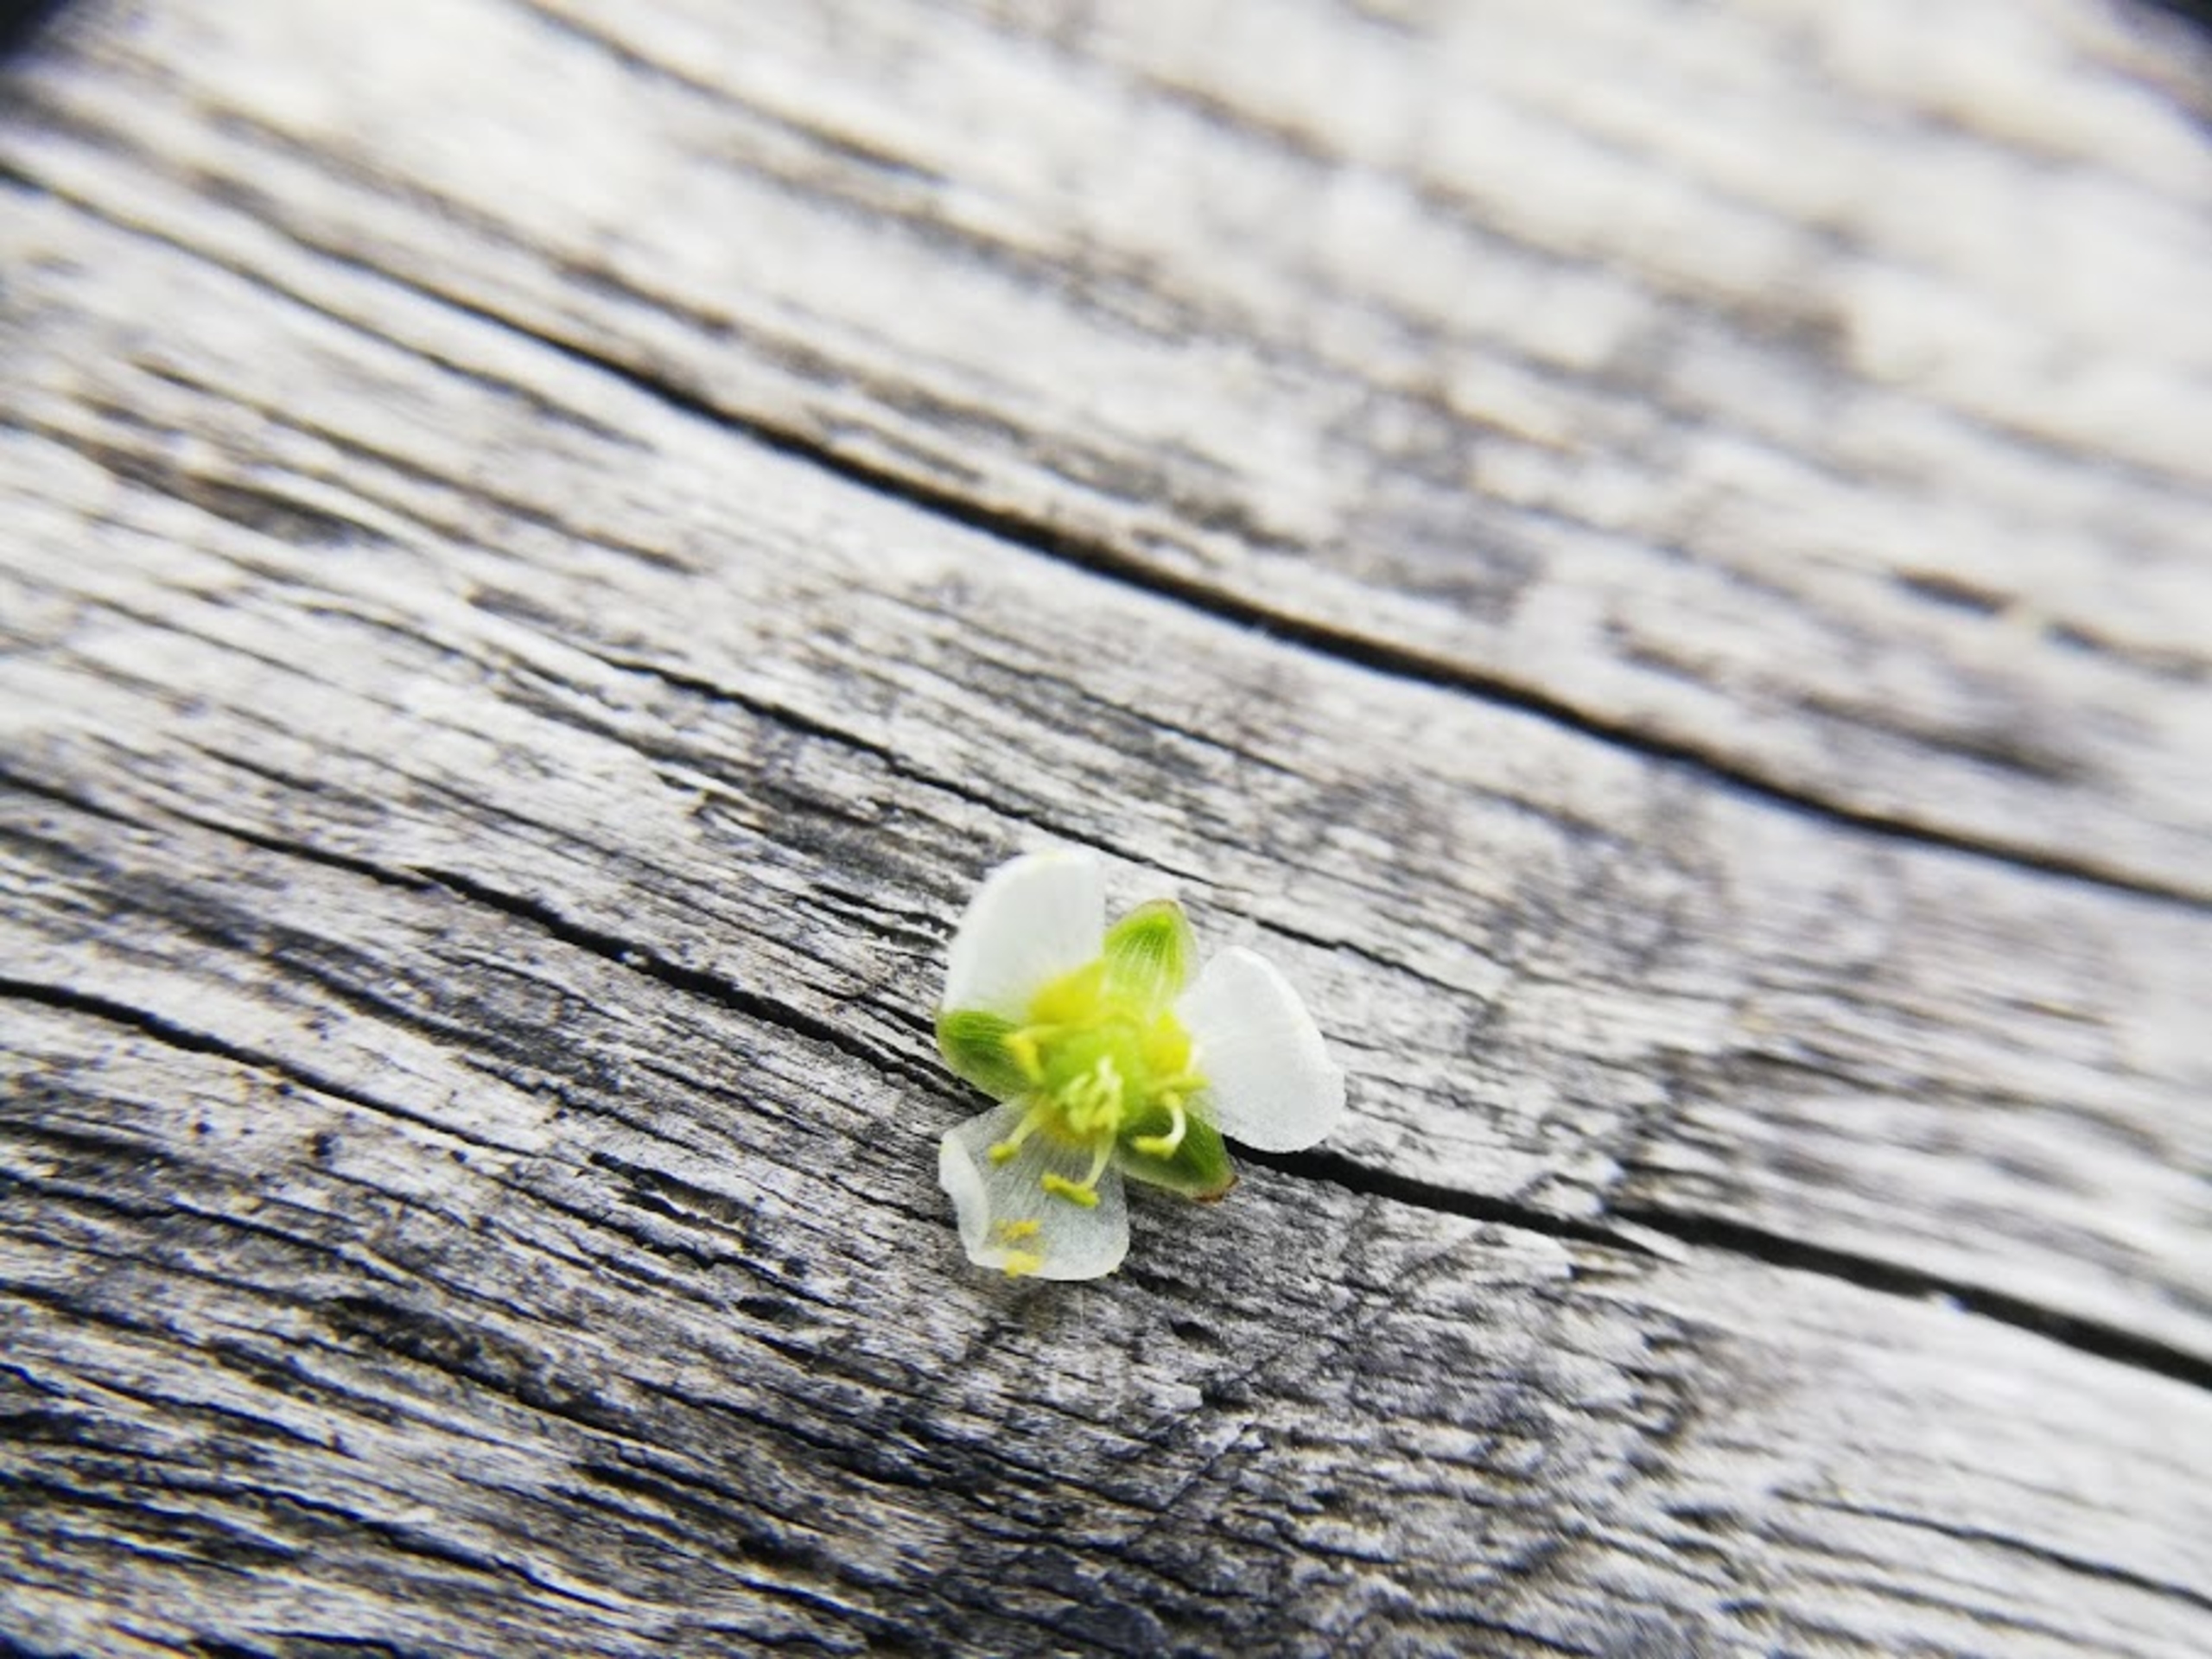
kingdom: Plantae
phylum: Tracheophyta
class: Liliopsida
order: Alismatales
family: Alismataceae
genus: Alisma
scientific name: Alisma plantago-aquatica
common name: Vejbred-skeblad
